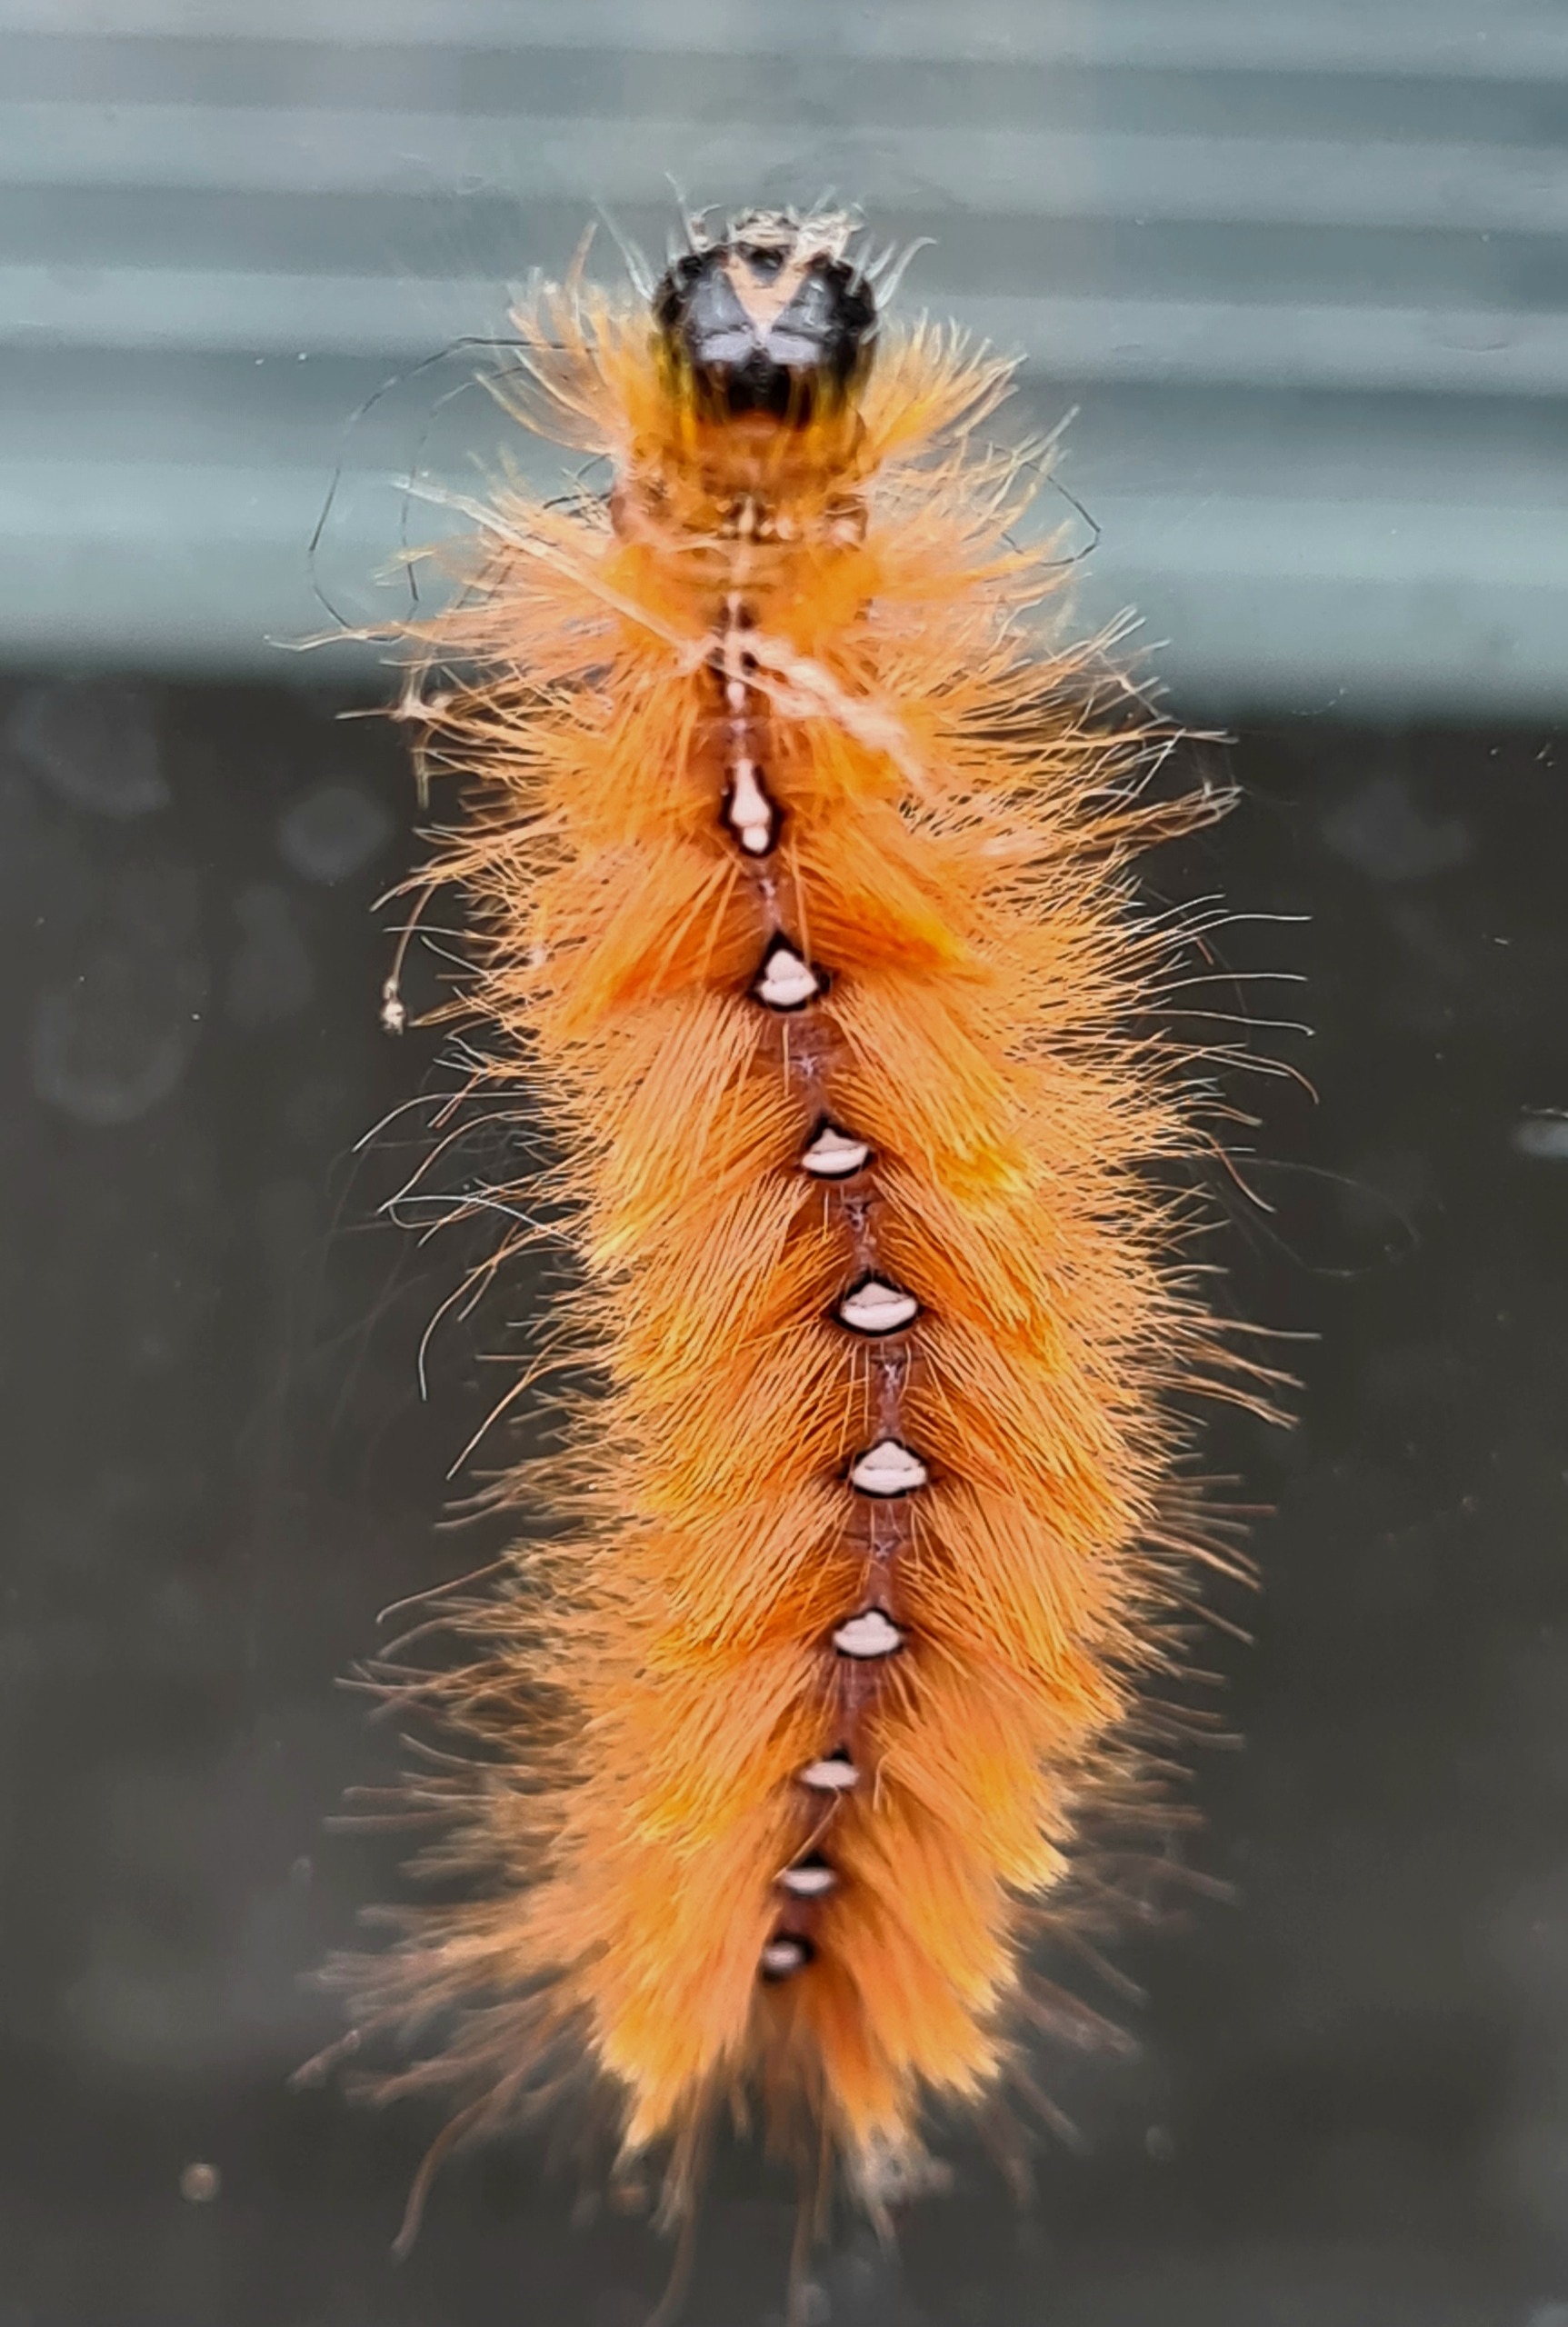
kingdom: Animalia
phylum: Arthropoda
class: Insecta
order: Lepidoptera
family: Noctuidae
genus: Acronicta
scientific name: Acronicta aceris
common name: Ahornugle
